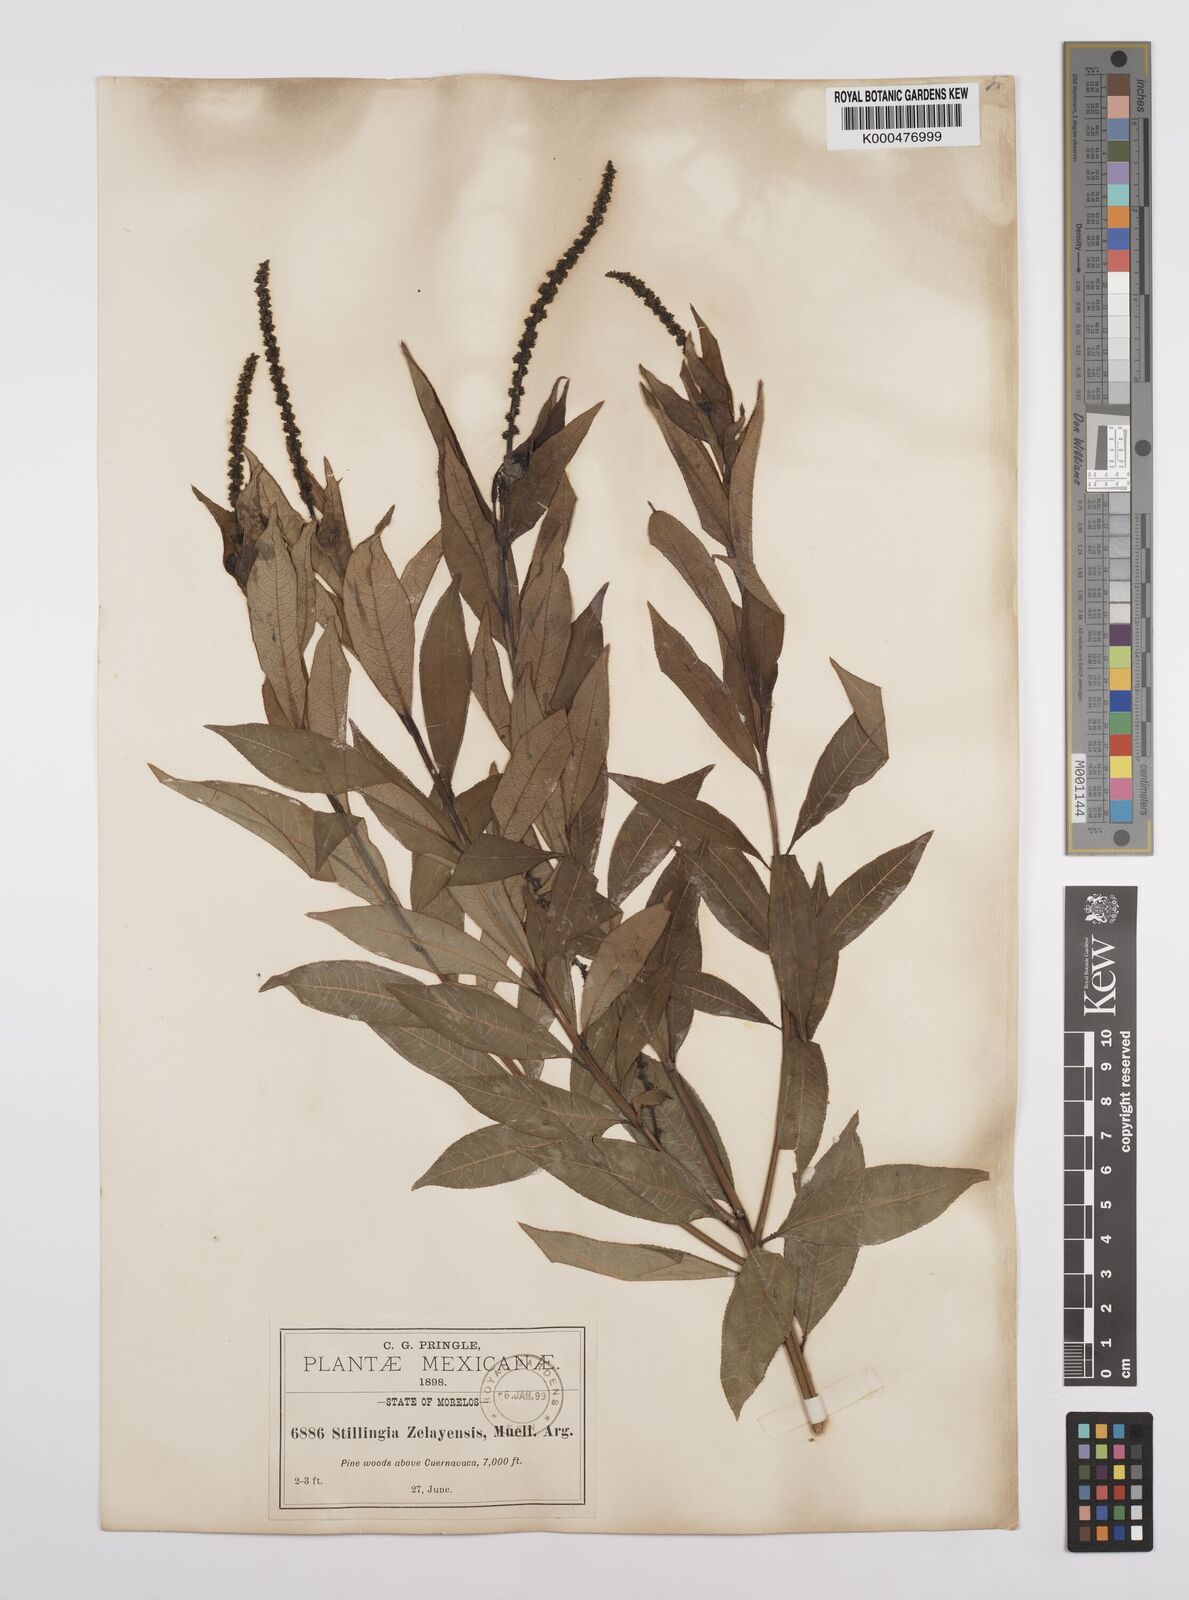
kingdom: Plantae
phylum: Tracheophyta
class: Magnoliopsida
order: Malpighiales
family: Euphorbiaceae
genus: Stillingia
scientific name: Stillingia
